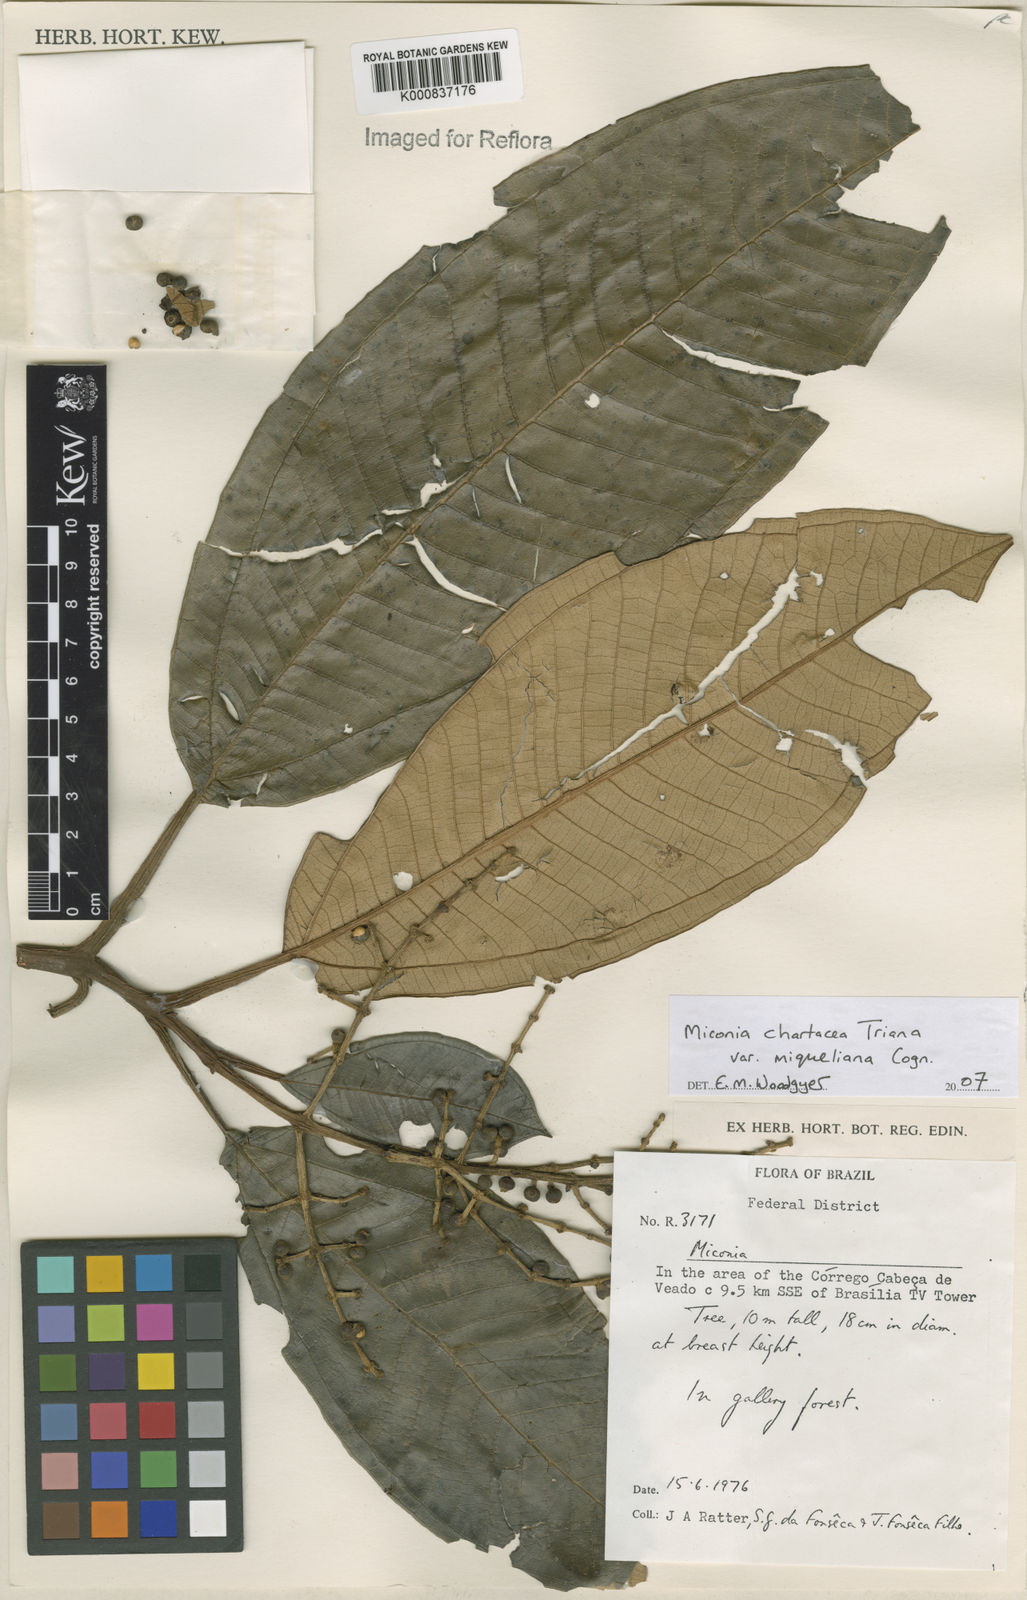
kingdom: Plantae
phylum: Tracheophyta
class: Magnoliopsida
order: Myrtales
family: Melastomataceae
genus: Miconia
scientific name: Miconia chartacea
